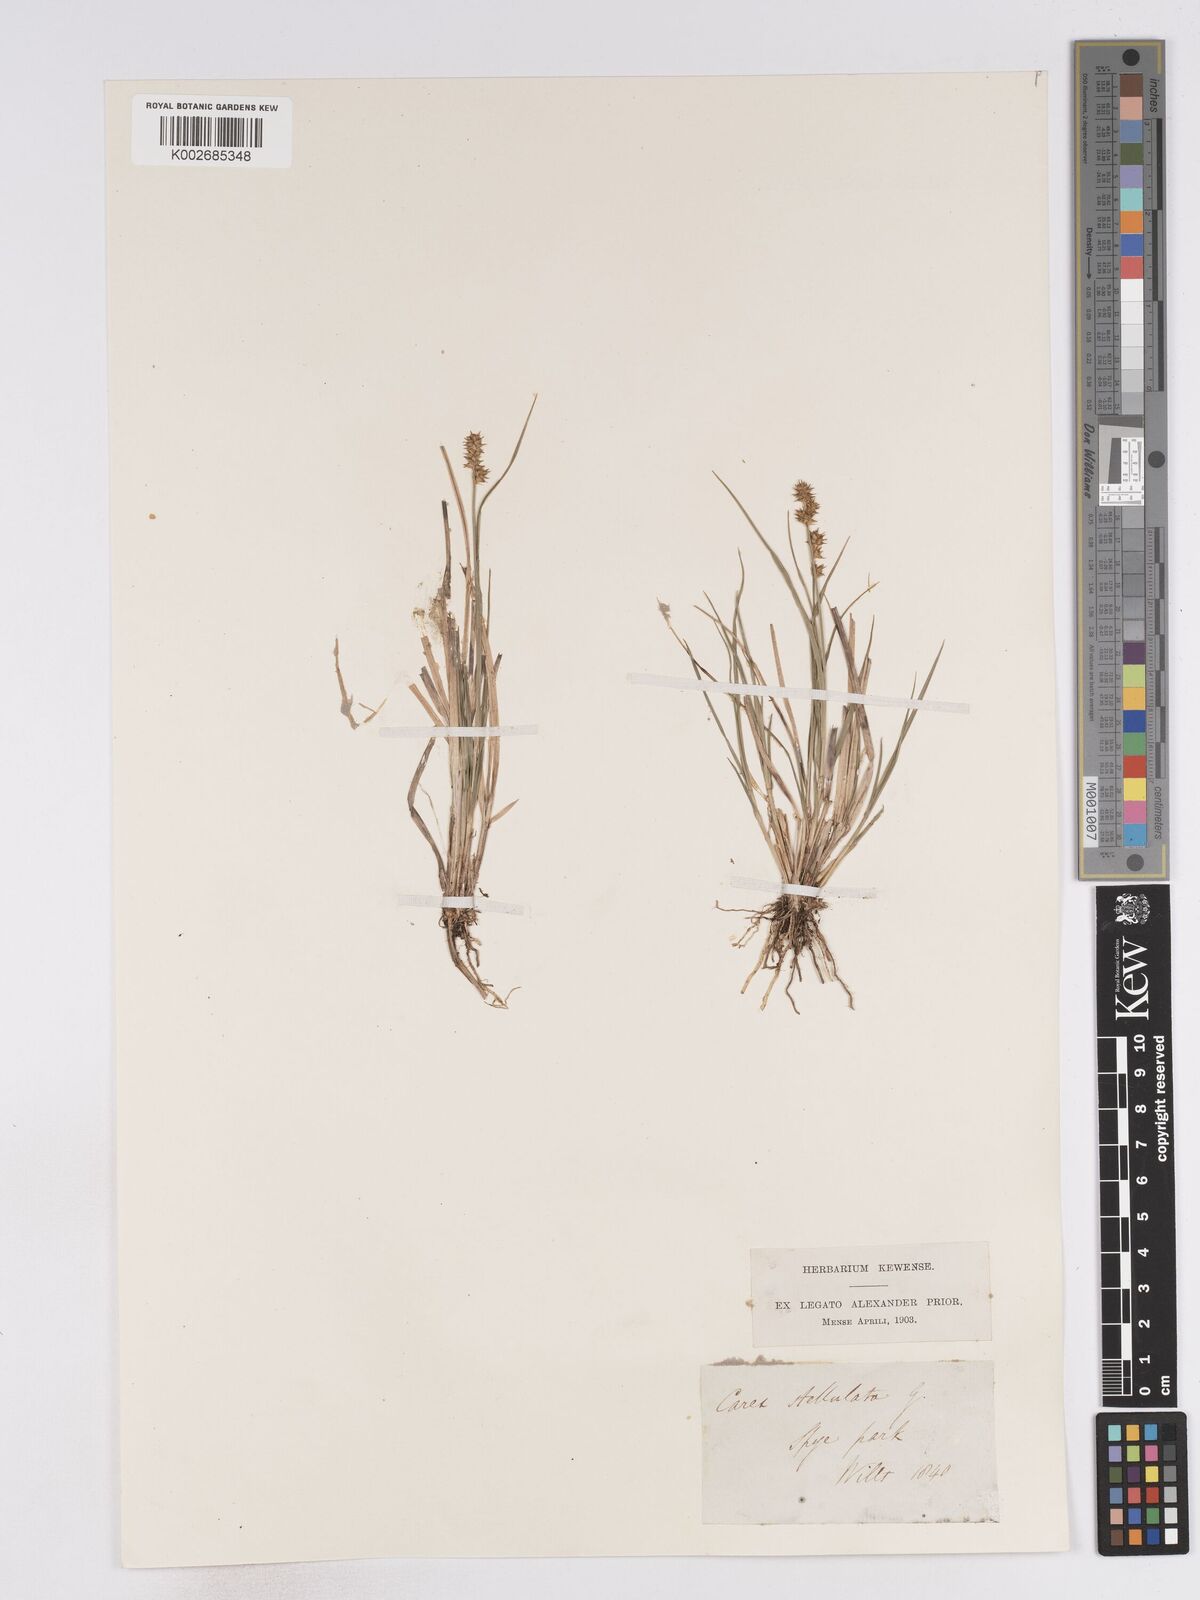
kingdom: Plantae
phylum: Tracheophyta
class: Liliopsida
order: Poales
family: Cyperaceae
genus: Carex
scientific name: Carex echinata
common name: Star sedge
